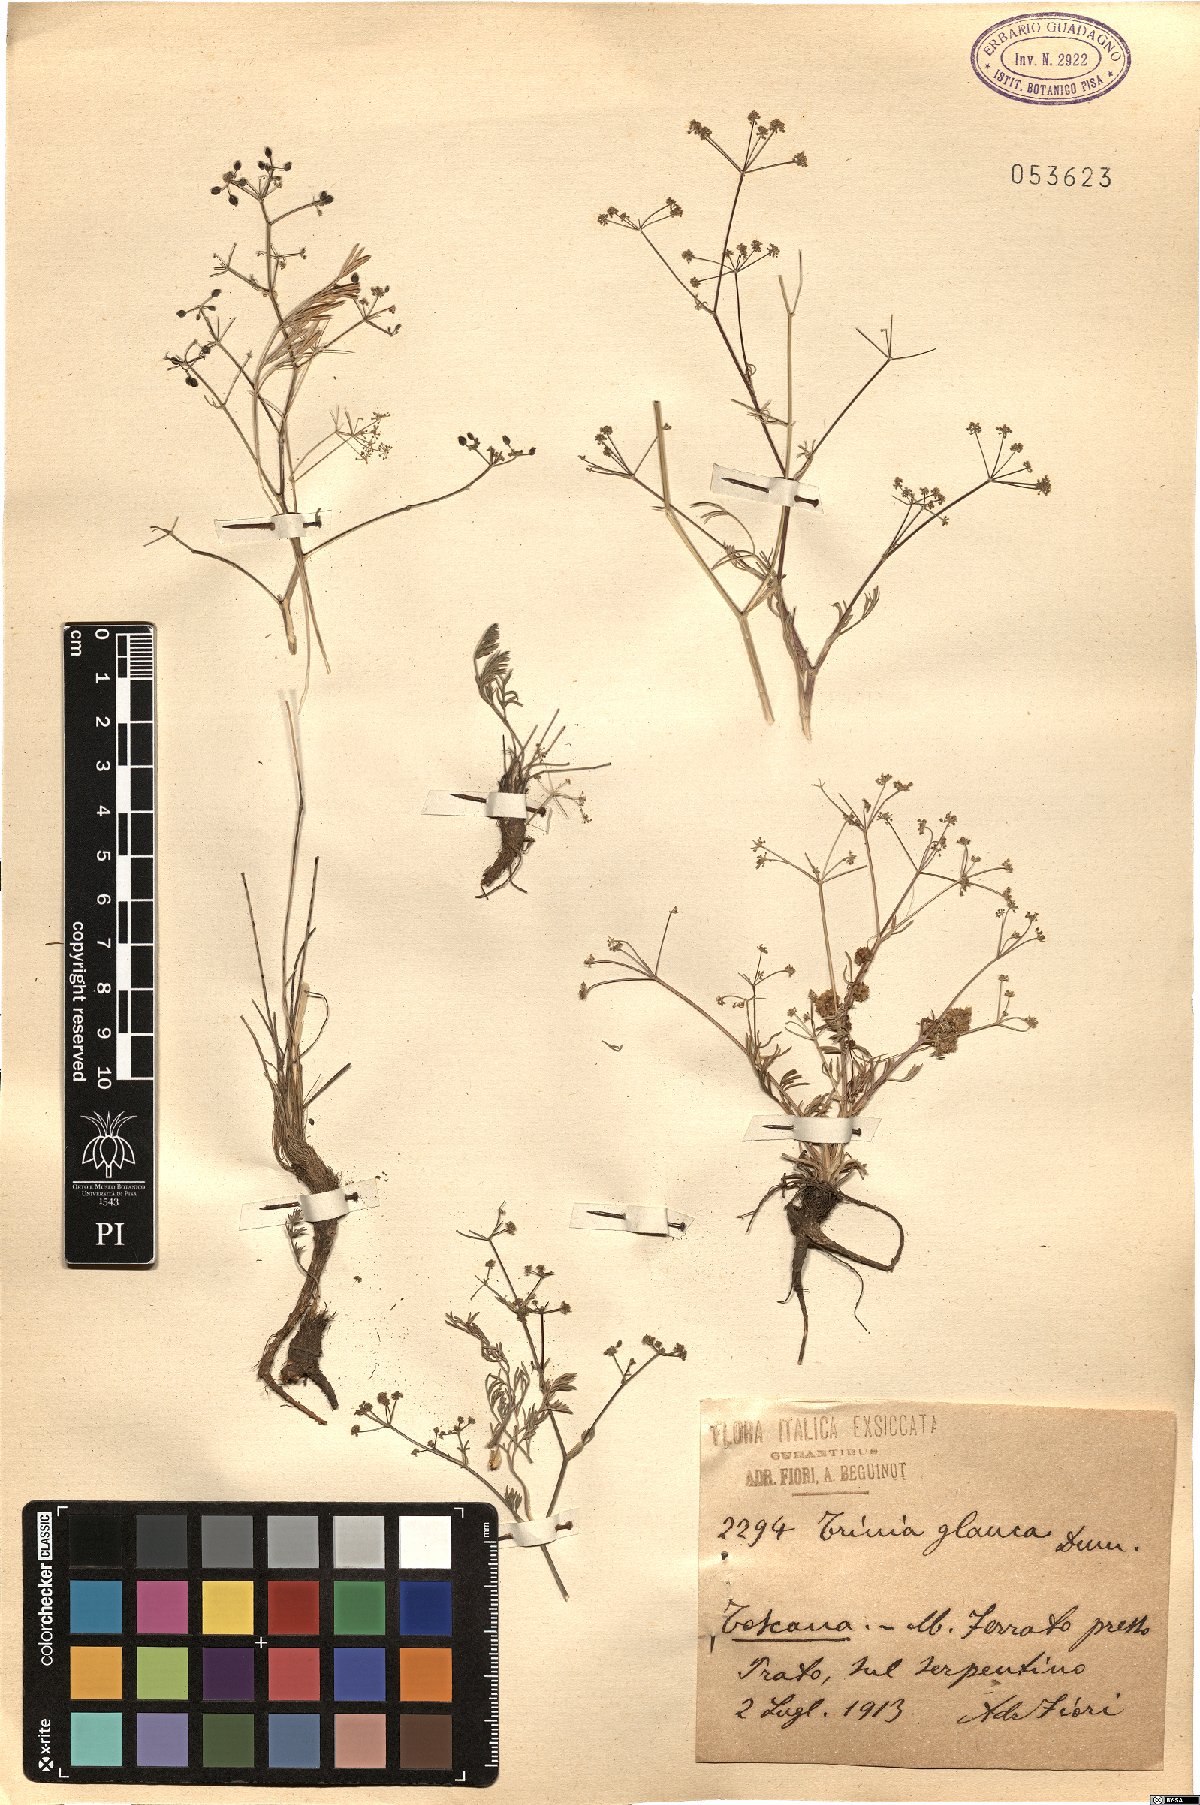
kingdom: Plantae
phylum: Tracheophyta
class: Magnoliopsida
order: Apiales
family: Apiaceae
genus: Trinia
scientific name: Trinia glauca
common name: Honewort
